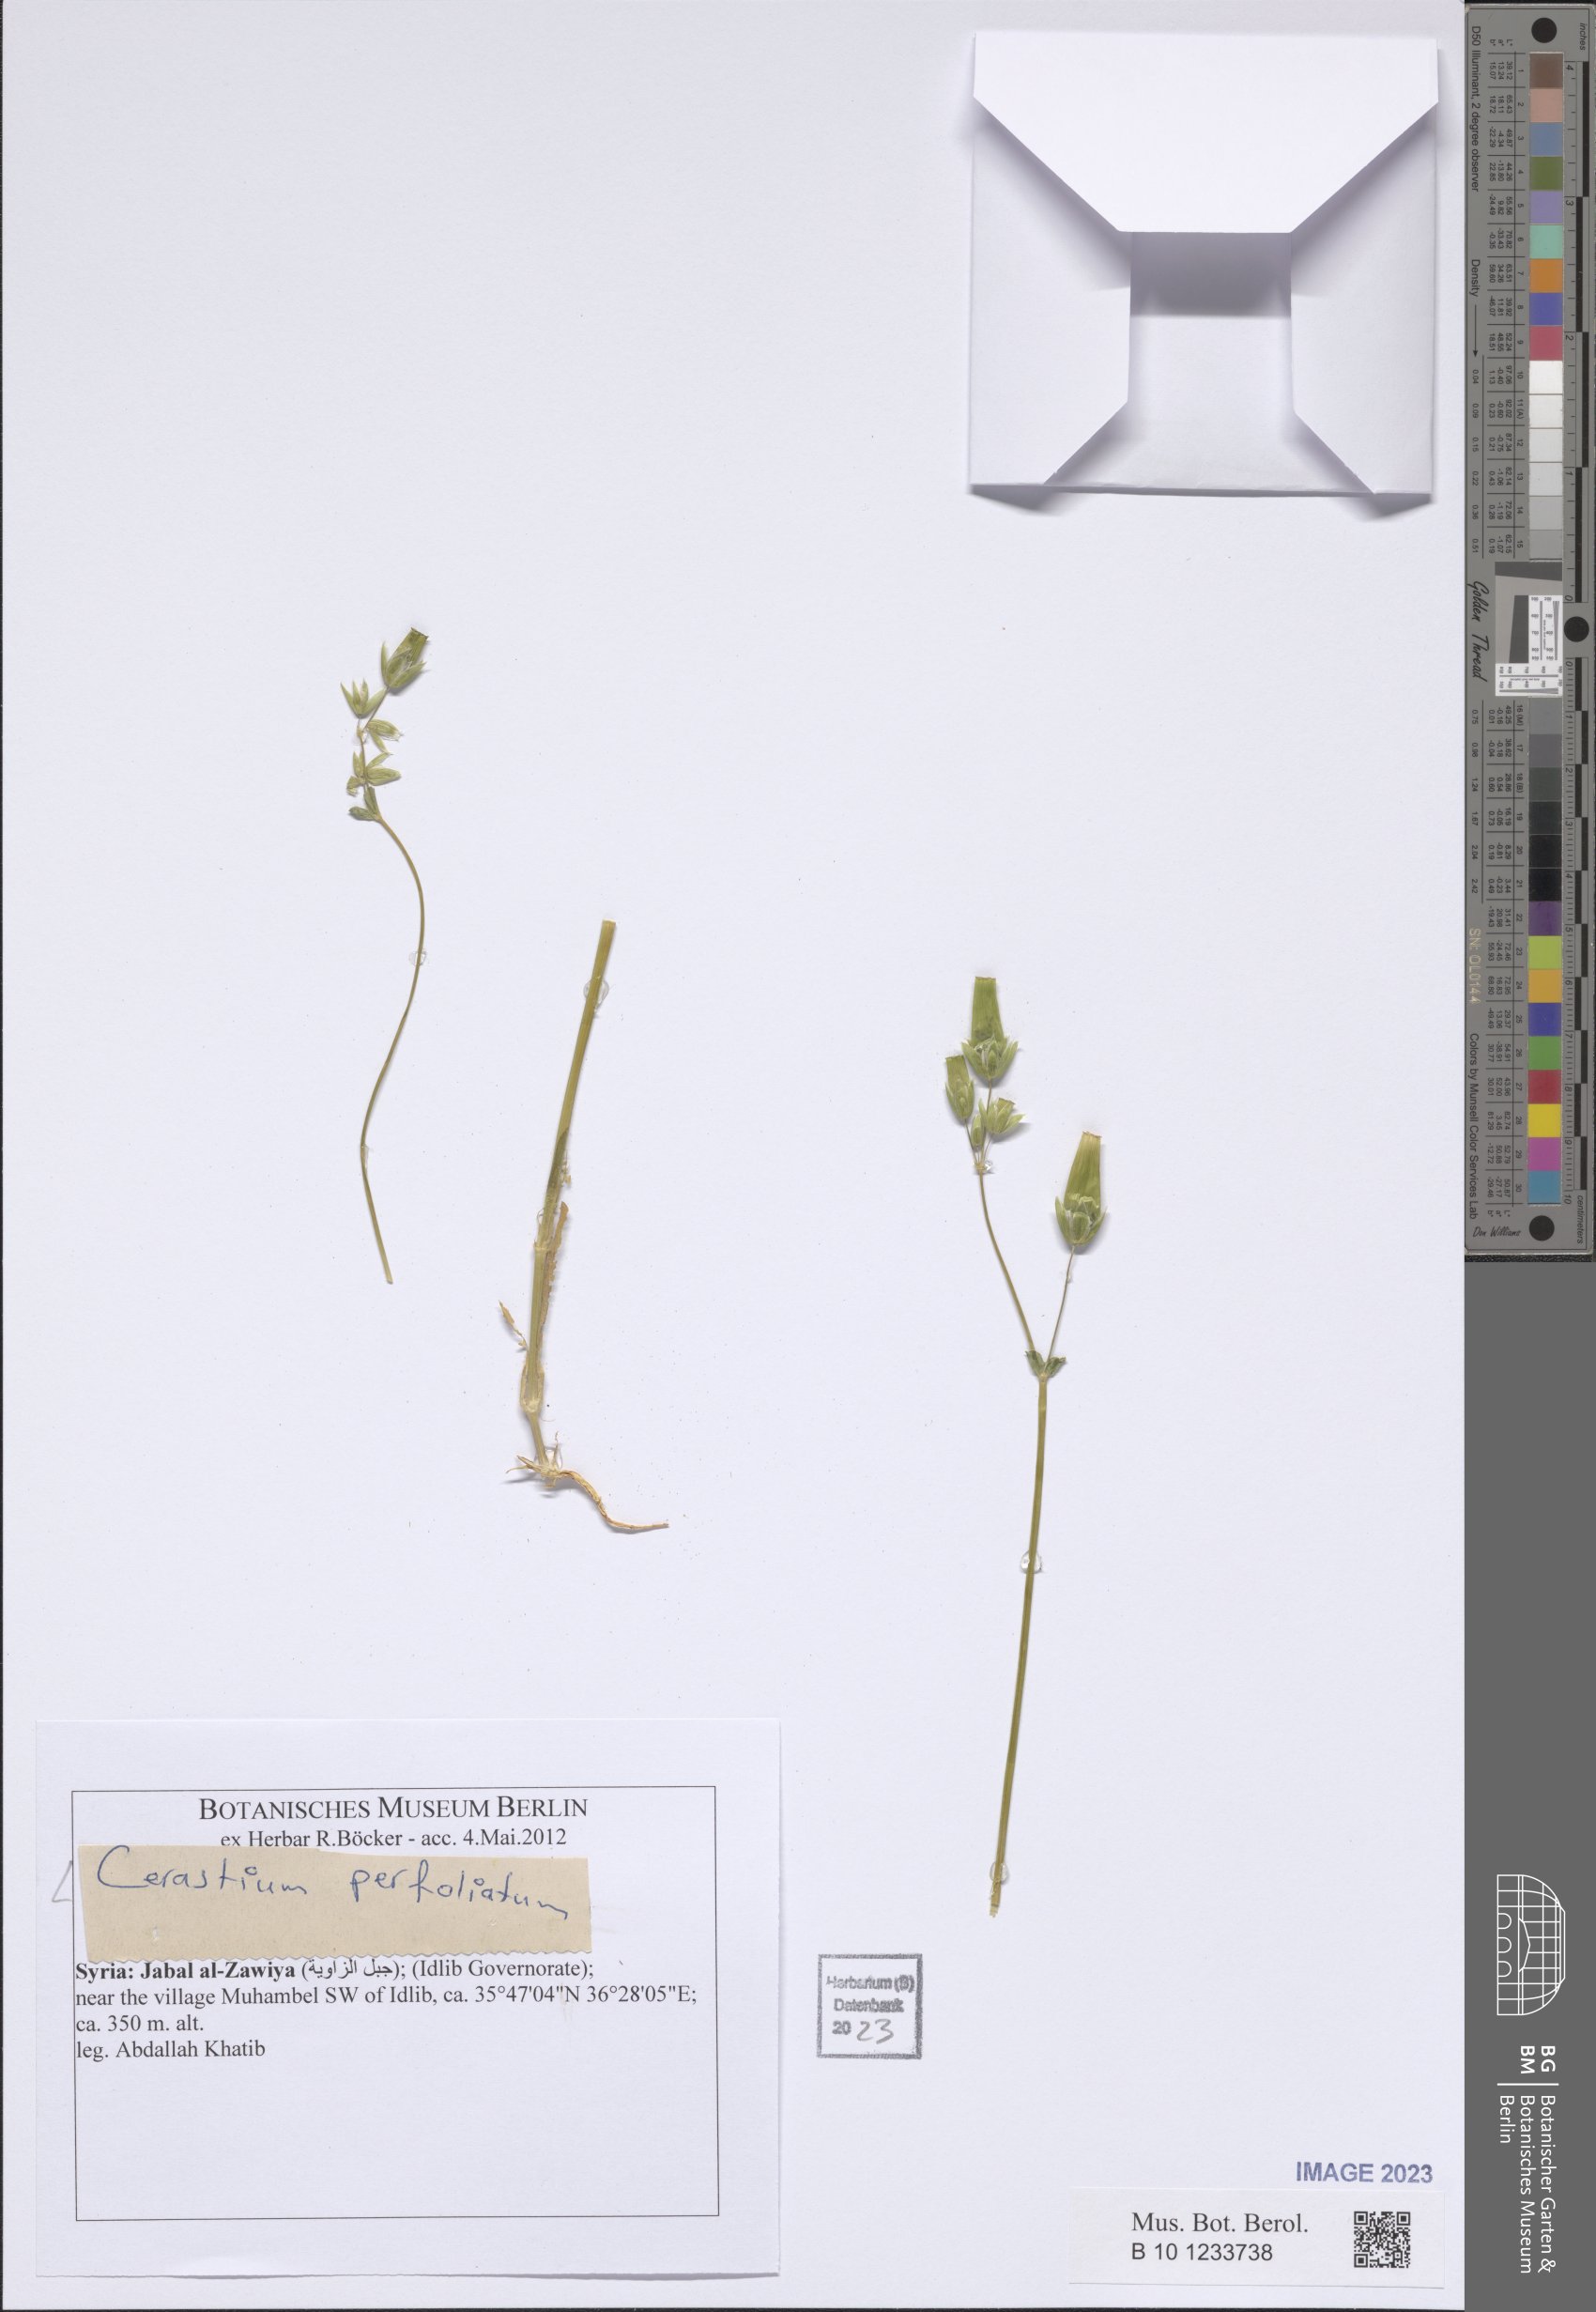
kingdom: Plantae
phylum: Tracheophyta
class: Magnoliopsida
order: Caryophyllales
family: Caryophyllaceae
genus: Dichodon
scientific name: Dichodon perfoliatum
